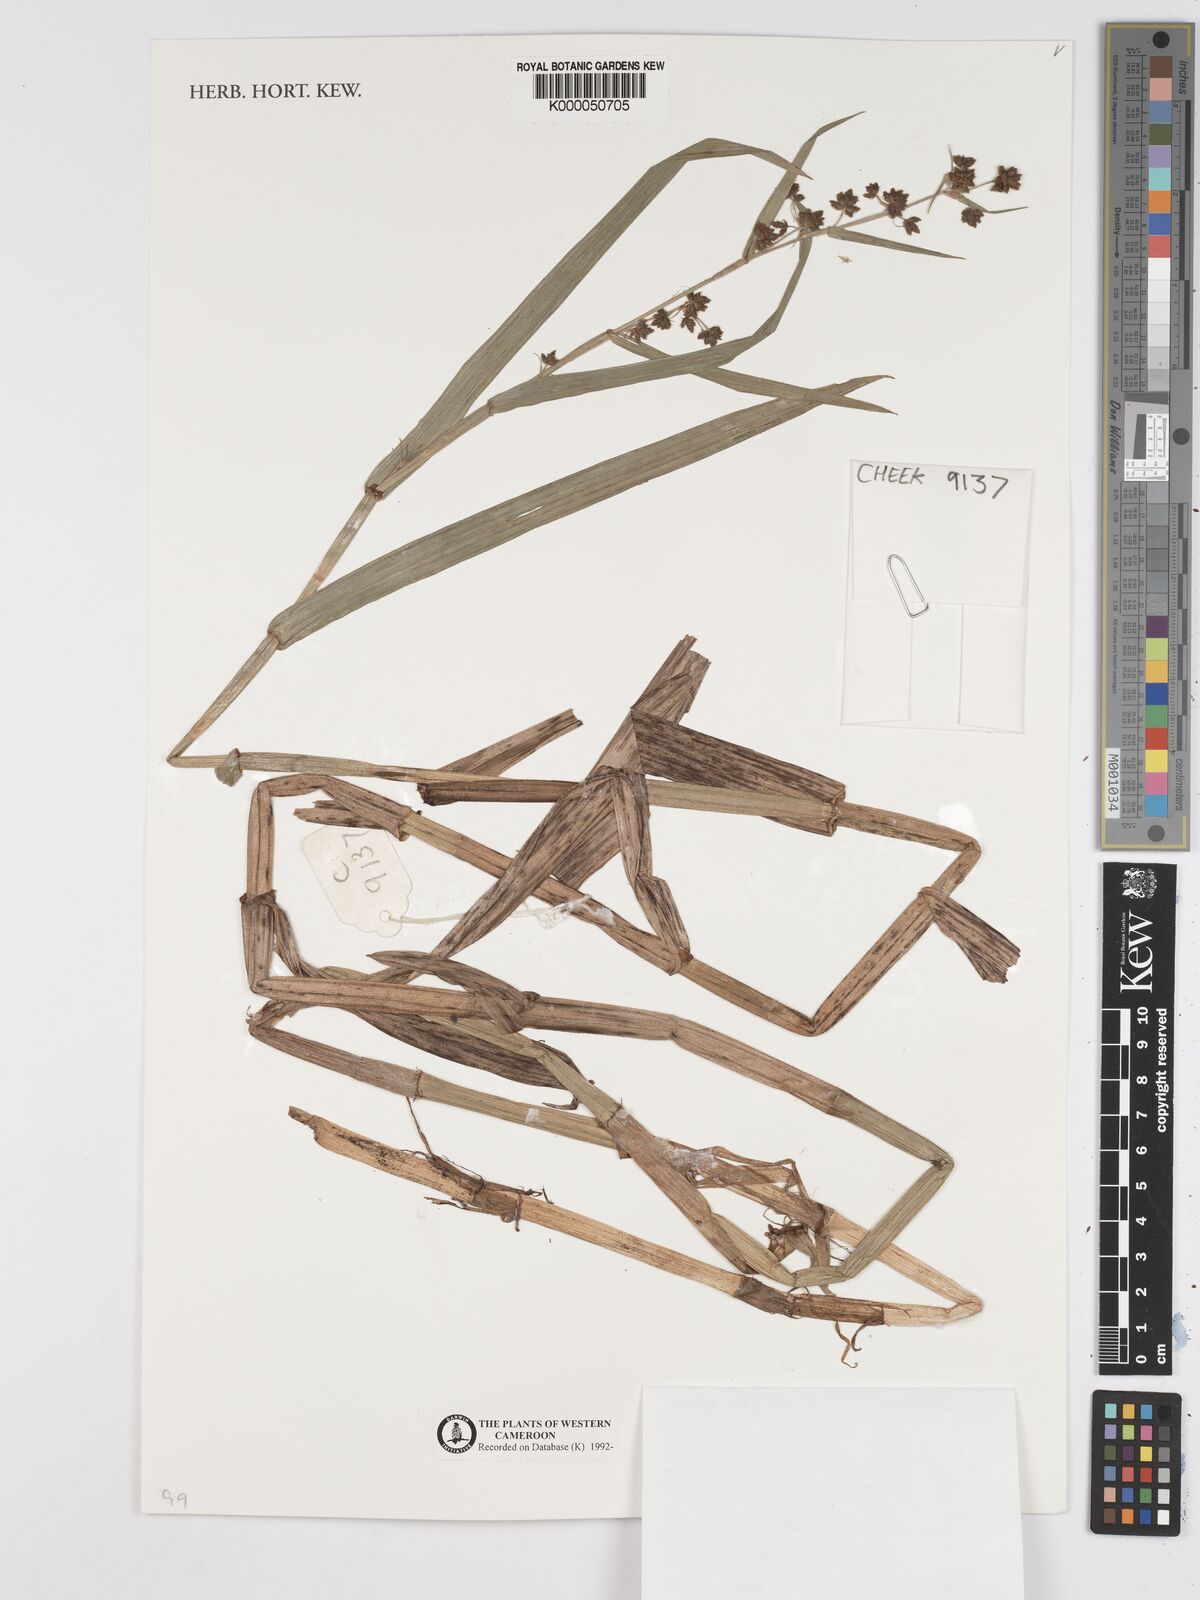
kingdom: Plantae
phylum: Tracheophyta
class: Liliopsida
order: Poales
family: Cyperaceae
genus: Fuirena
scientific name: Fuirena umbellata
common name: Yefen
